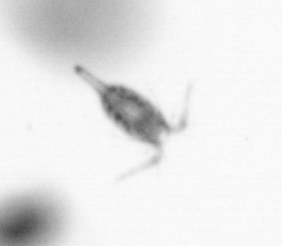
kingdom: Animalia
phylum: Arthropoda
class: Copepoda
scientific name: Copepoda
